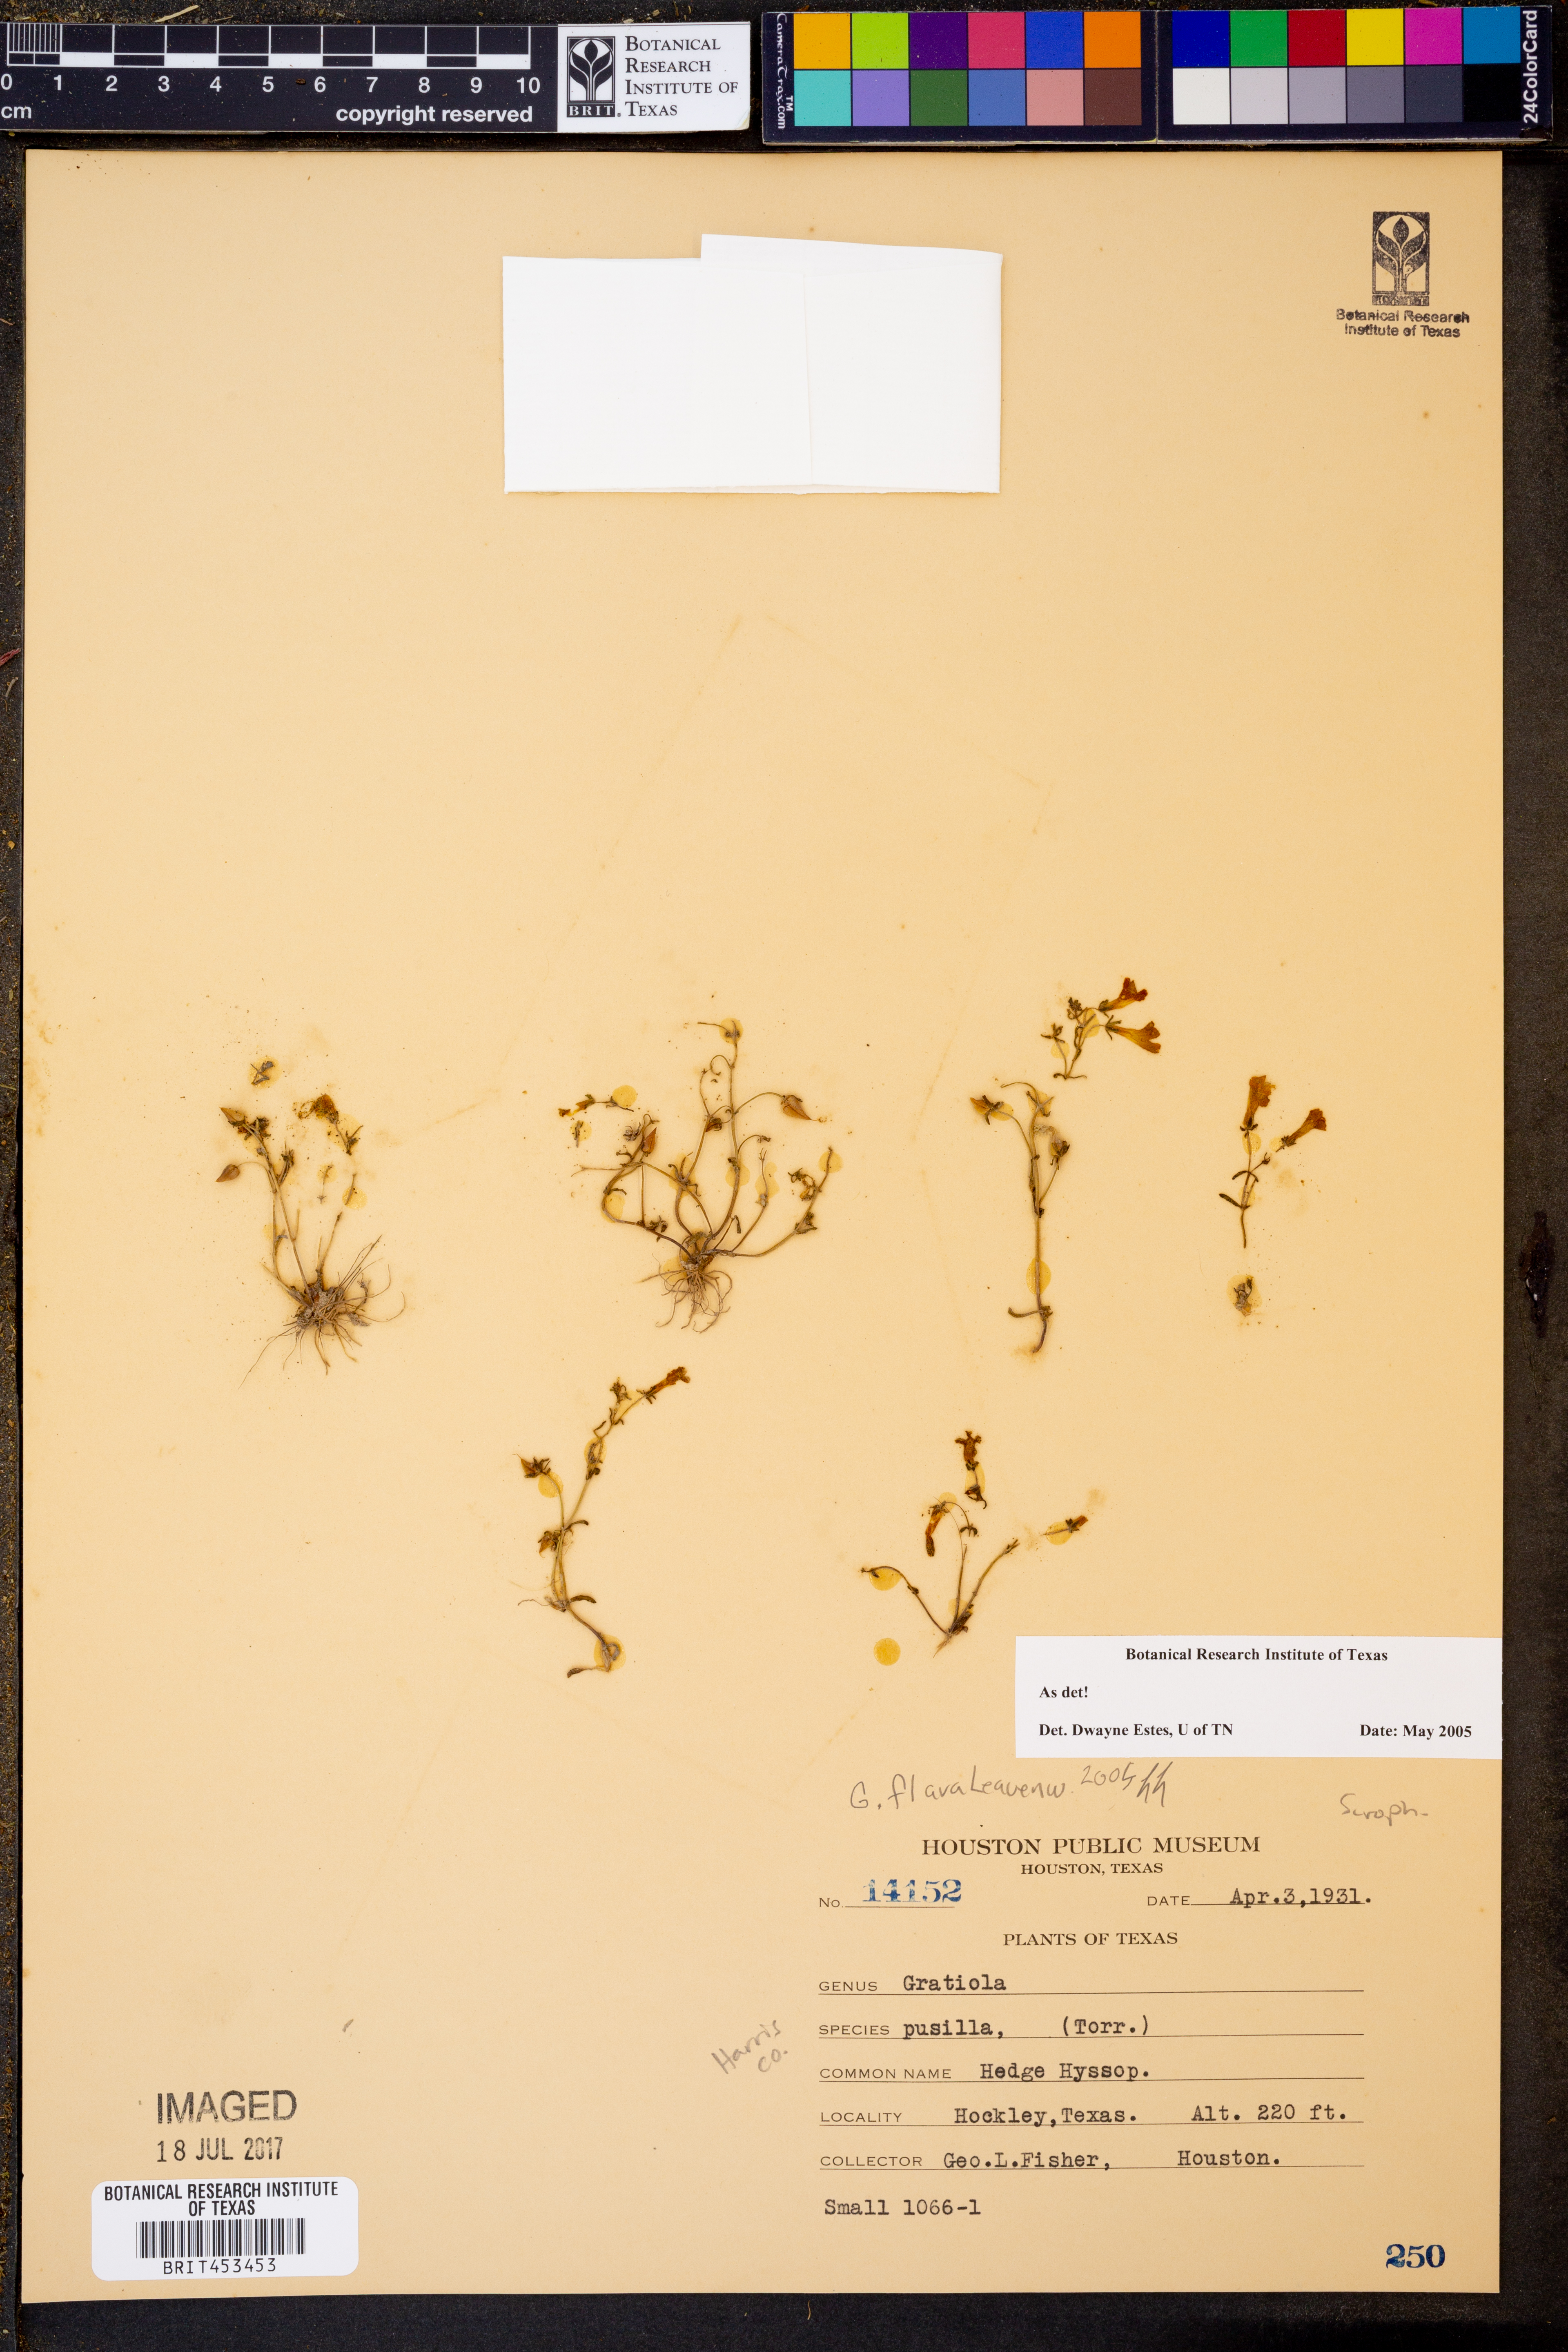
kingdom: Plantae
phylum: Tracheophyta
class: Magnoliopsida
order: Lamiales
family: Plantaginaceae
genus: Gratiola
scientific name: Gratiola flava
